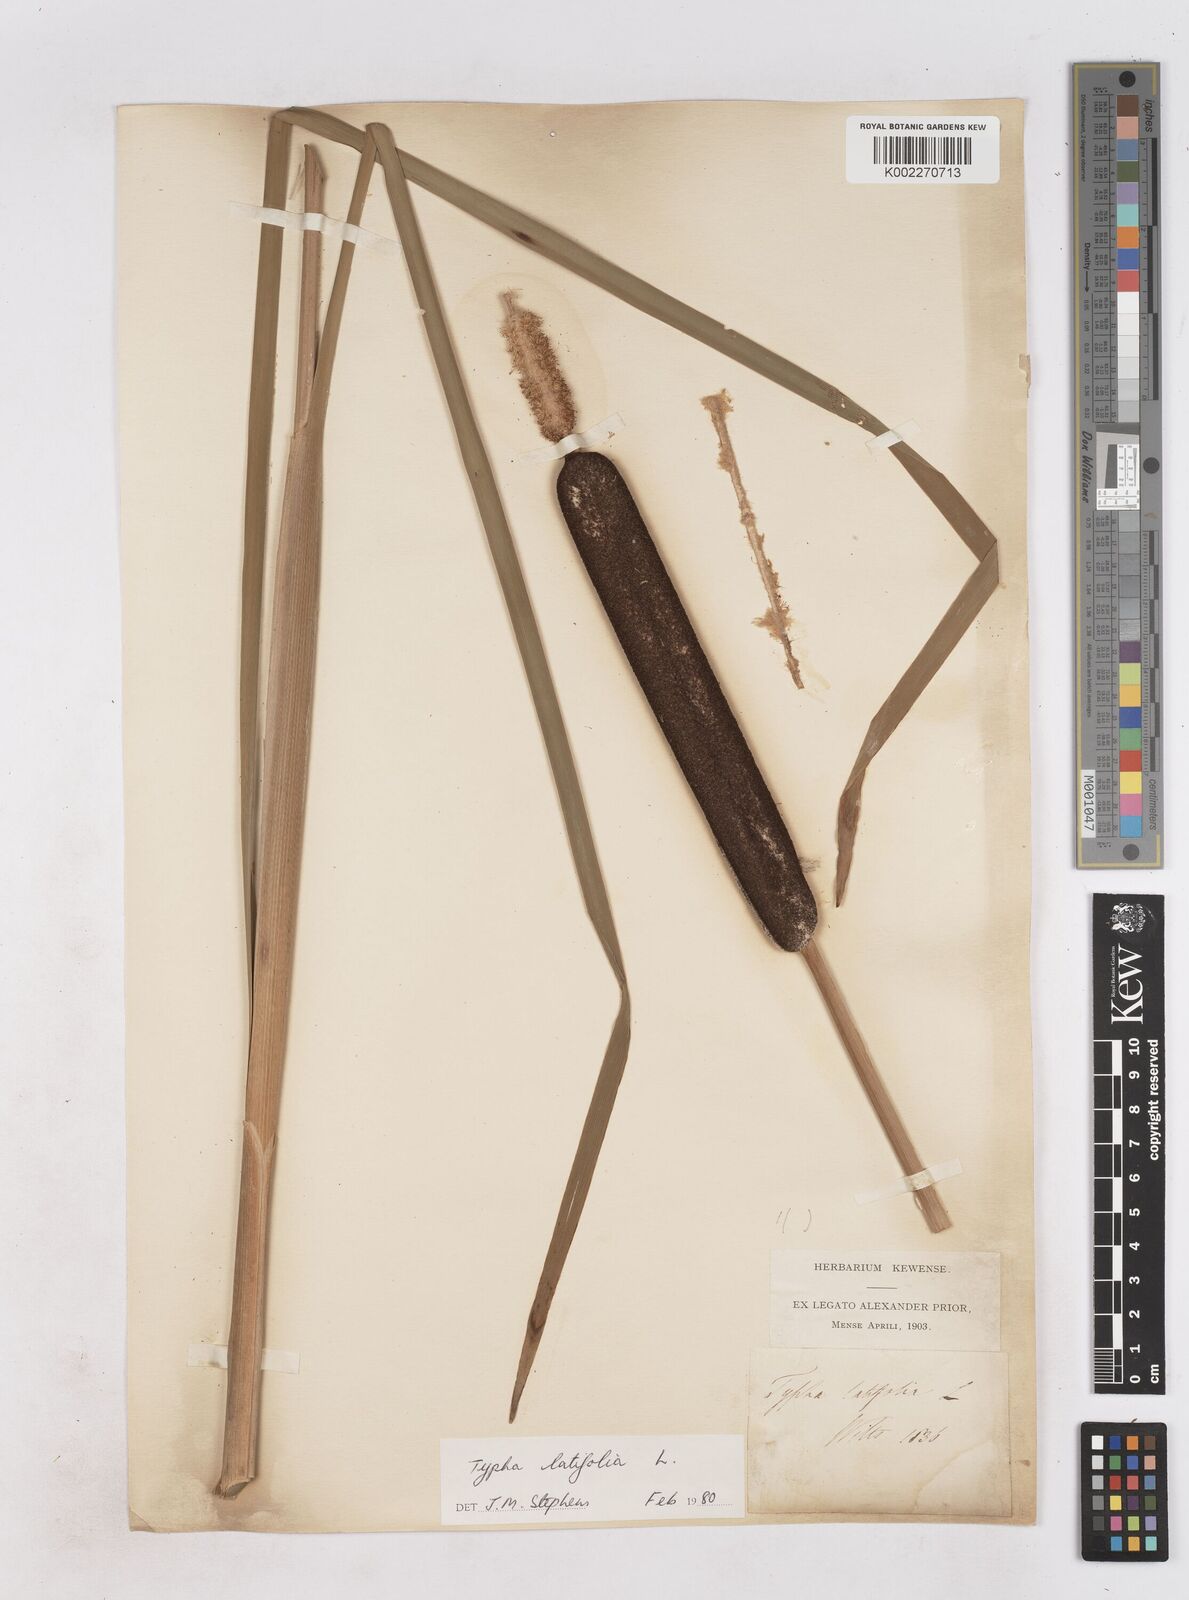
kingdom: Plantae
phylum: Tracheophyta
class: Liliopsida
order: Poales
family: Typhaceae
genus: Typha
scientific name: Typha latifolia
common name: Broadleaf cattail
